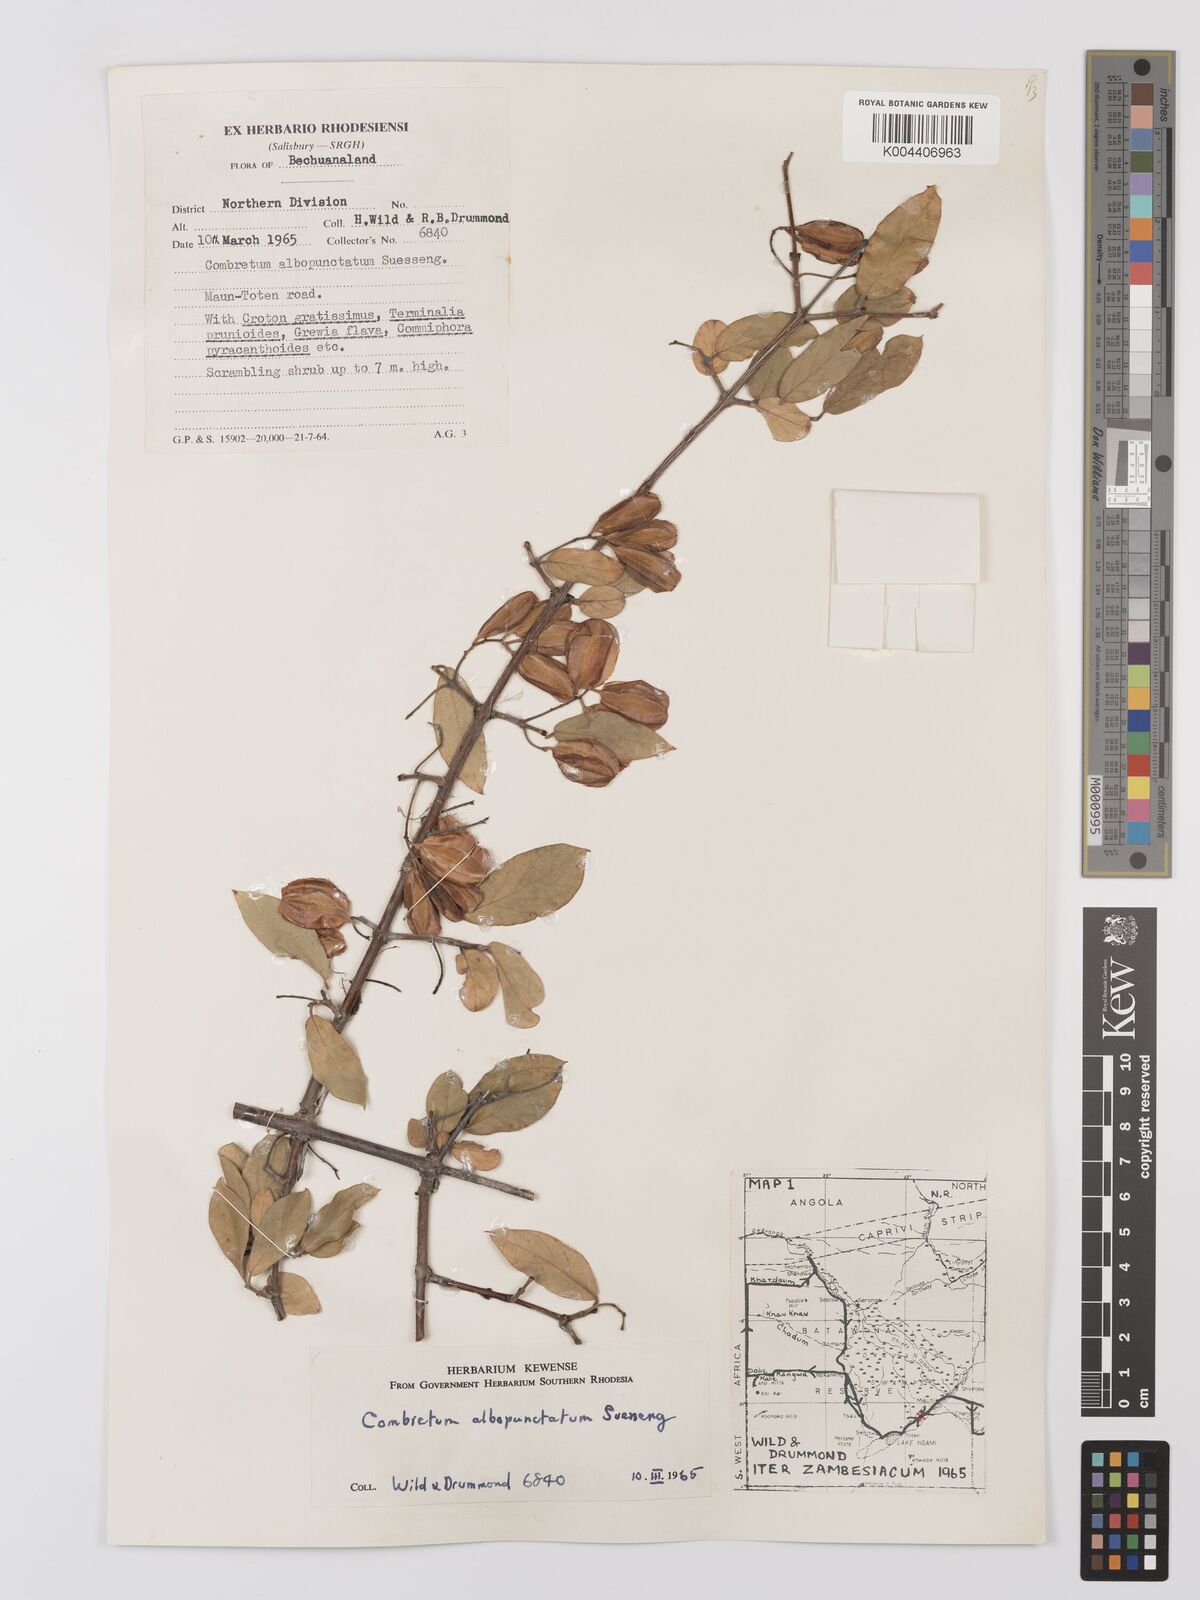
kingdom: Plantae
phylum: Tracheophyta
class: Magnoliopsida
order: Myrtales
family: Combretaceae
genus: Combretum
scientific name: Combretum albopunctatum
